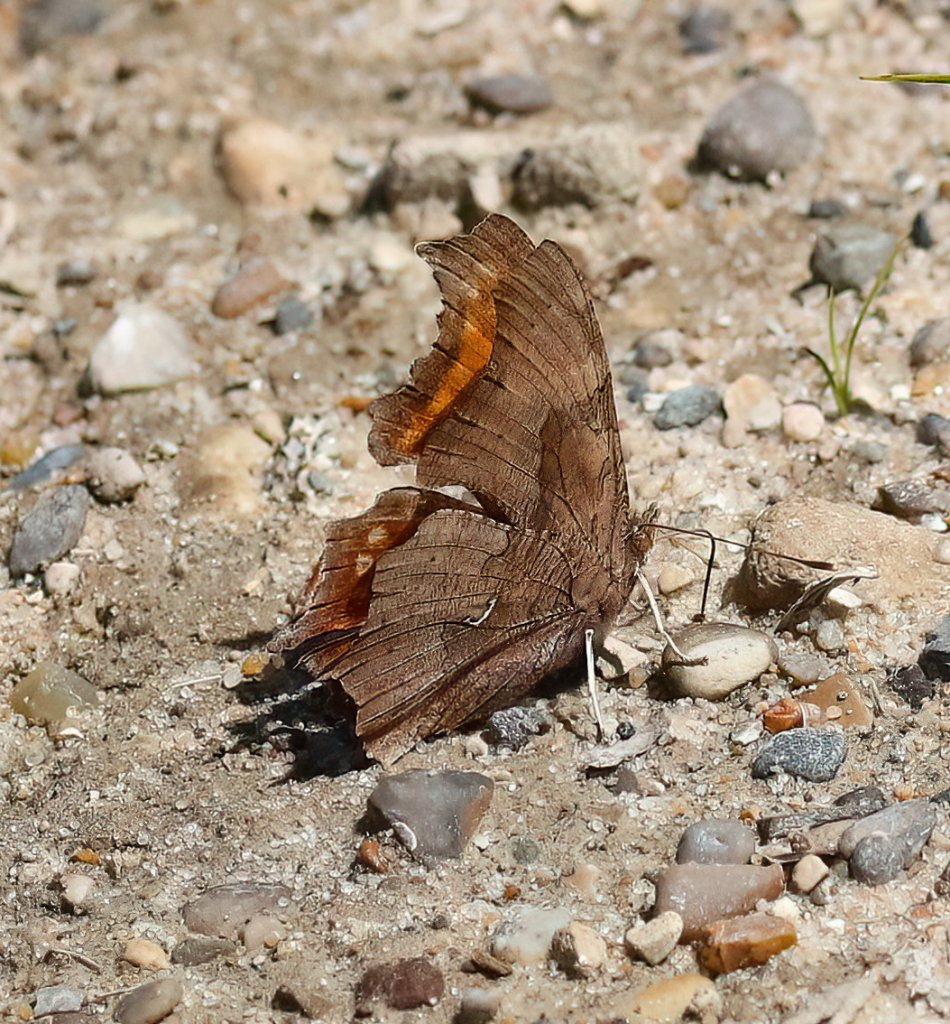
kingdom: Animalia
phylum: Arthropoda
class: Insecta
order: Lepidoptera
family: Nymphalidae
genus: Polygonia
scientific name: Polygonia comma
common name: Eastern Comma
